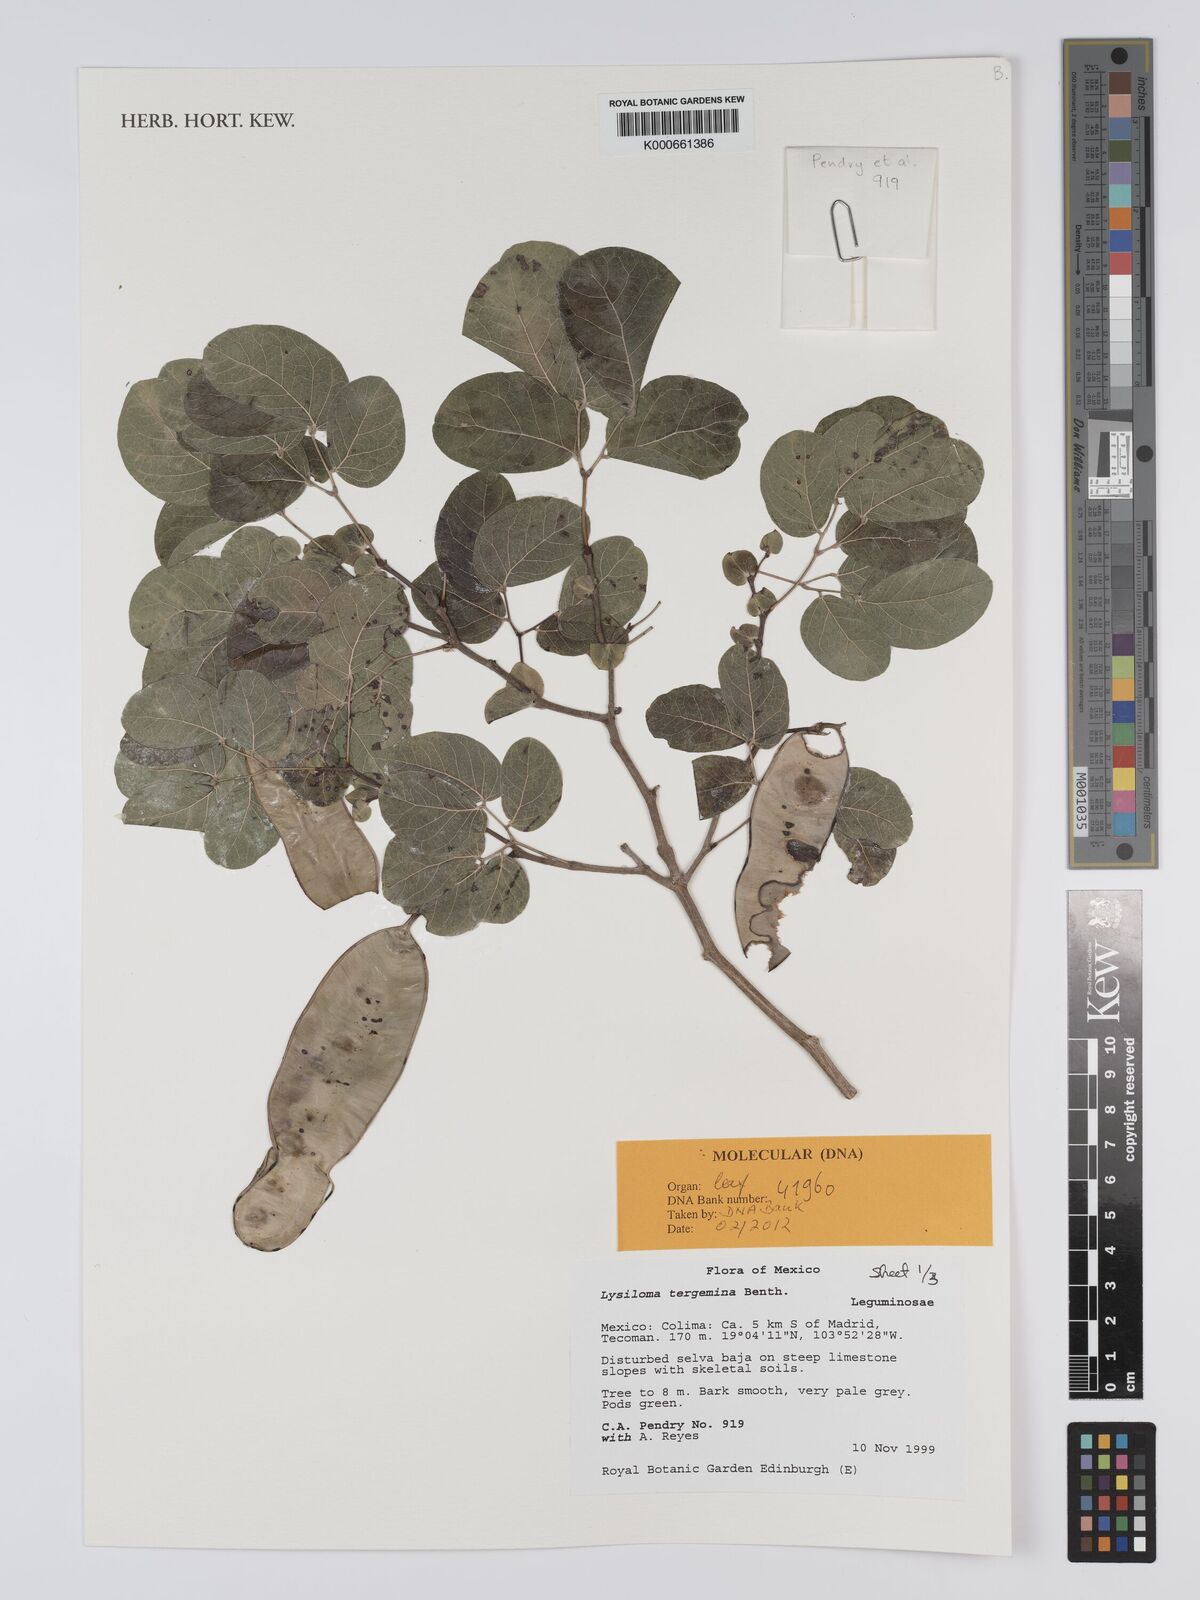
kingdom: Plantae
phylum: Tracheophyta
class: Magnoliopsida
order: Fabales
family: Fabaceae
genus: Lysiloma
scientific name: Lysiloma tergeminum
